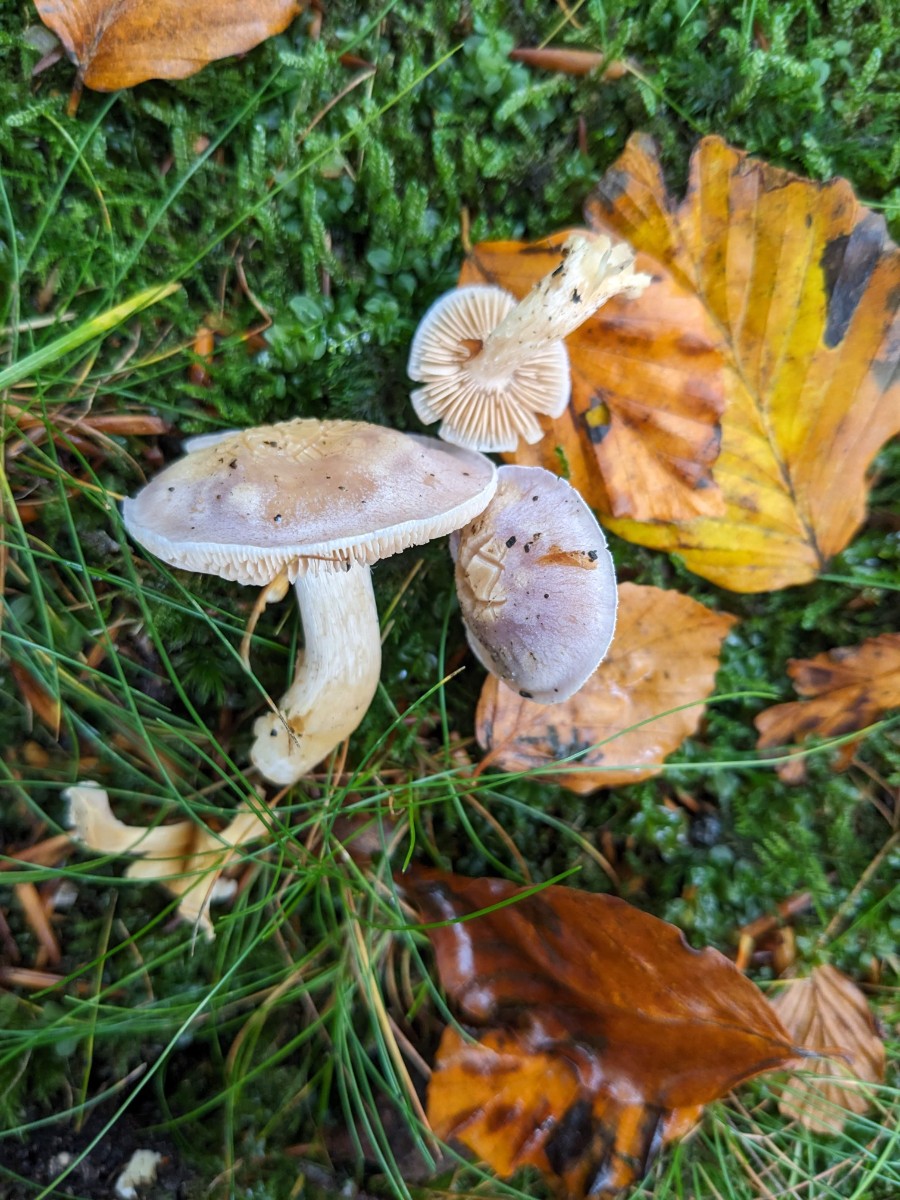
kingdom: Fungi
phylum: Basidiomycota
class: Agaricomycetes
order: Agaricales
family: Cortinariaceae
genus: Thaxterogaster
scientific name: Thaxterogaster croceocoeruleus
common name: blågullig slørhat
